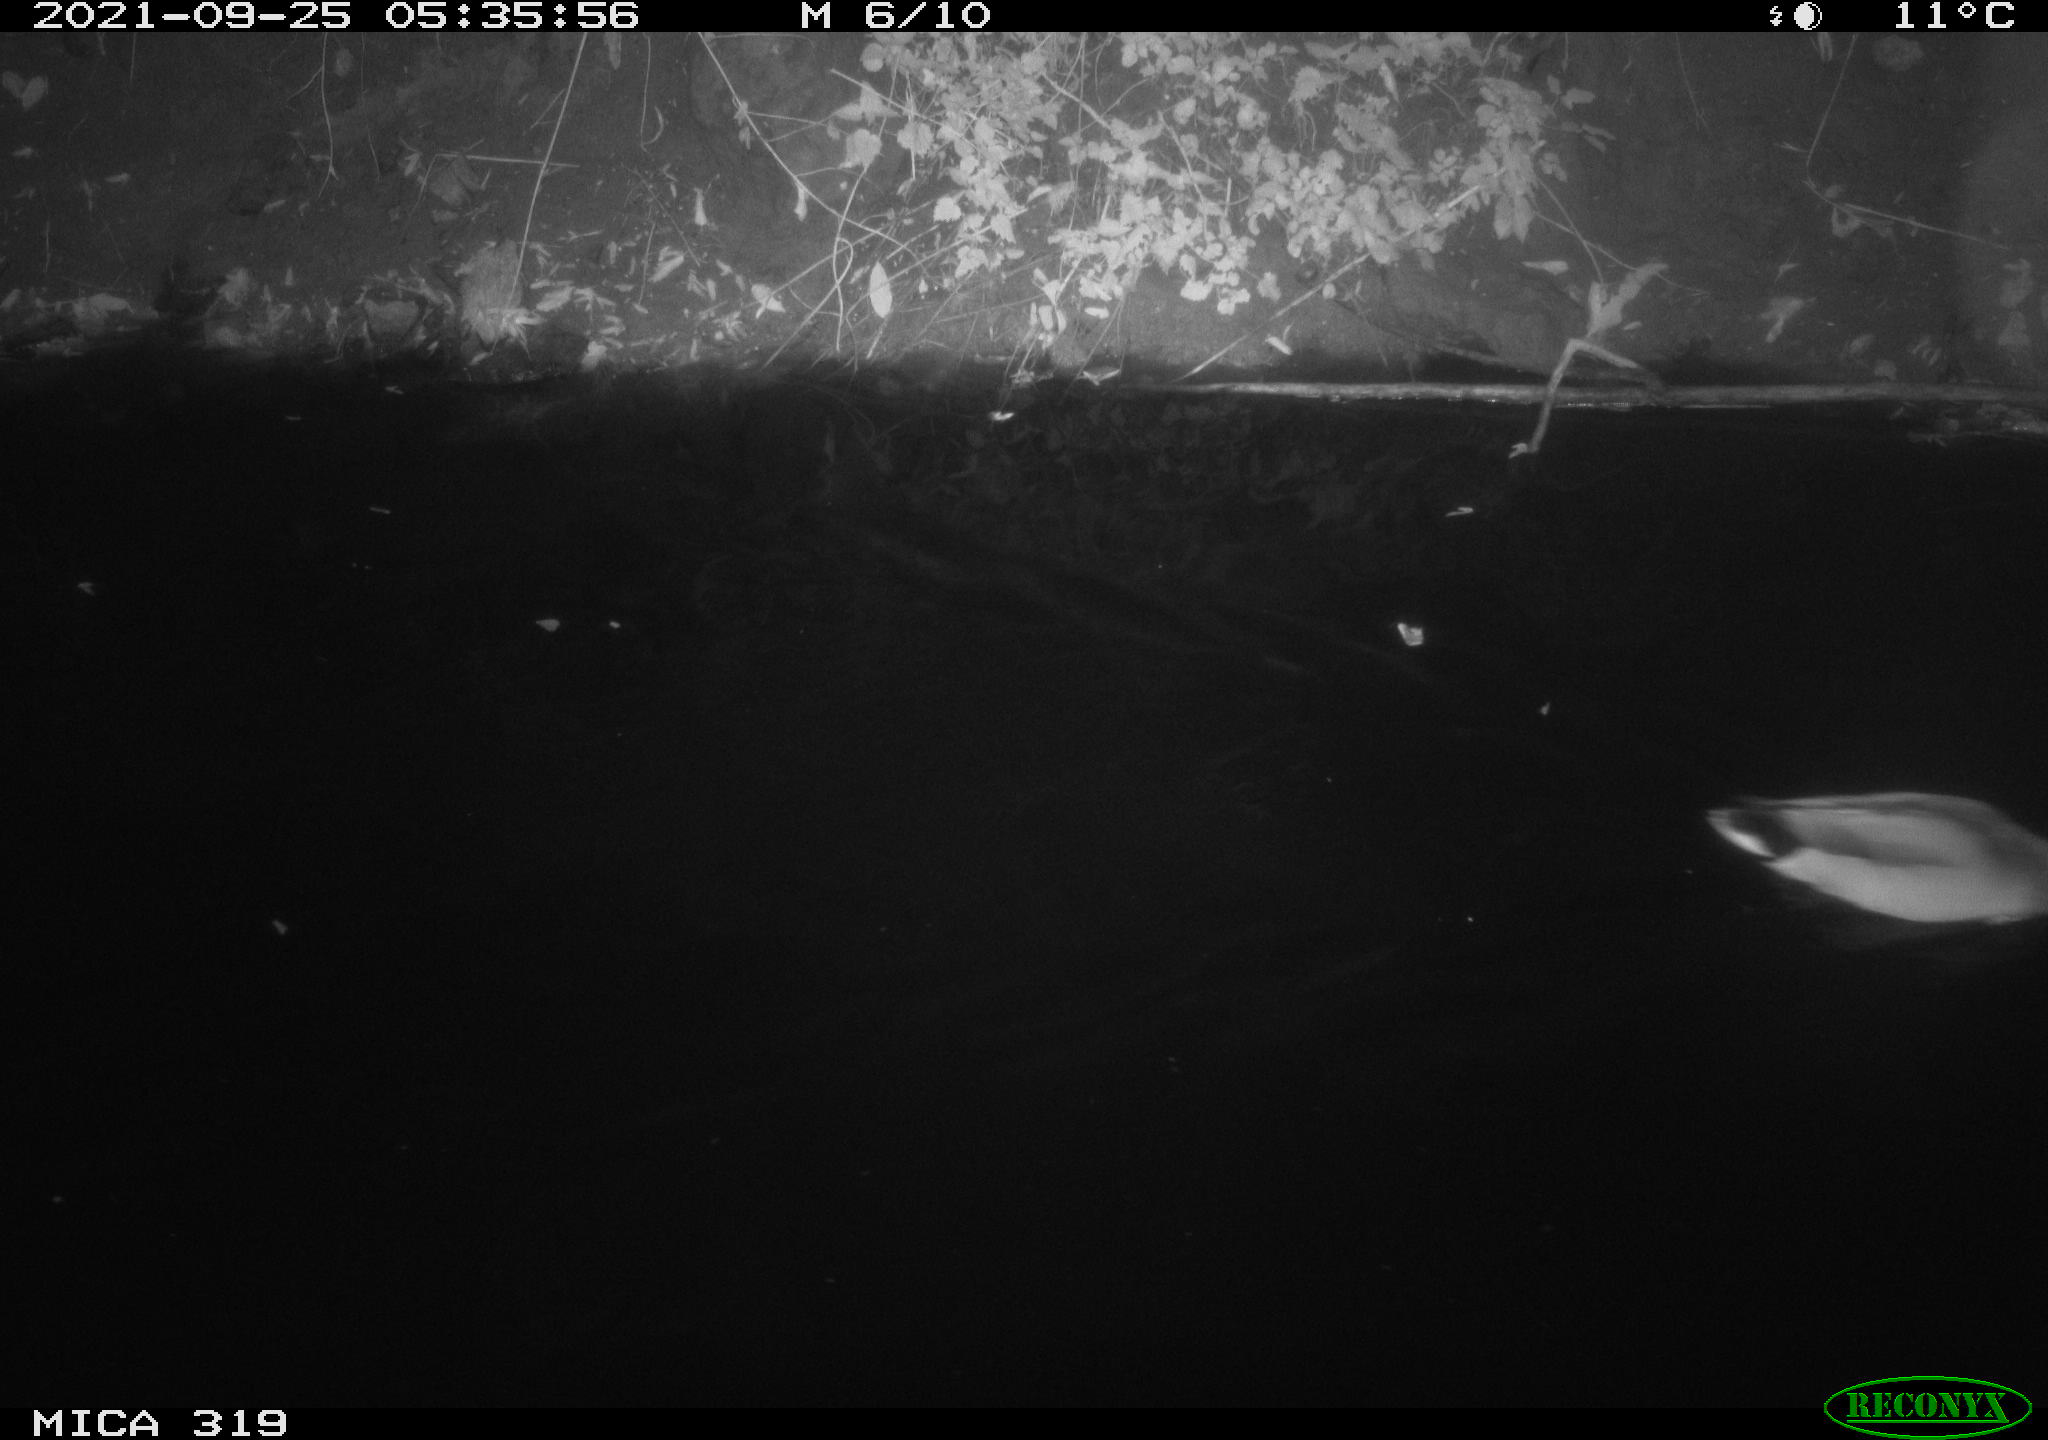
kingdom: Animalia
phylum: Chordata
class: Aves
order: Anseriformes
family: Anatidae
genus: Anas
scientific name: Anas platyrhynchos
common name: Mallard
